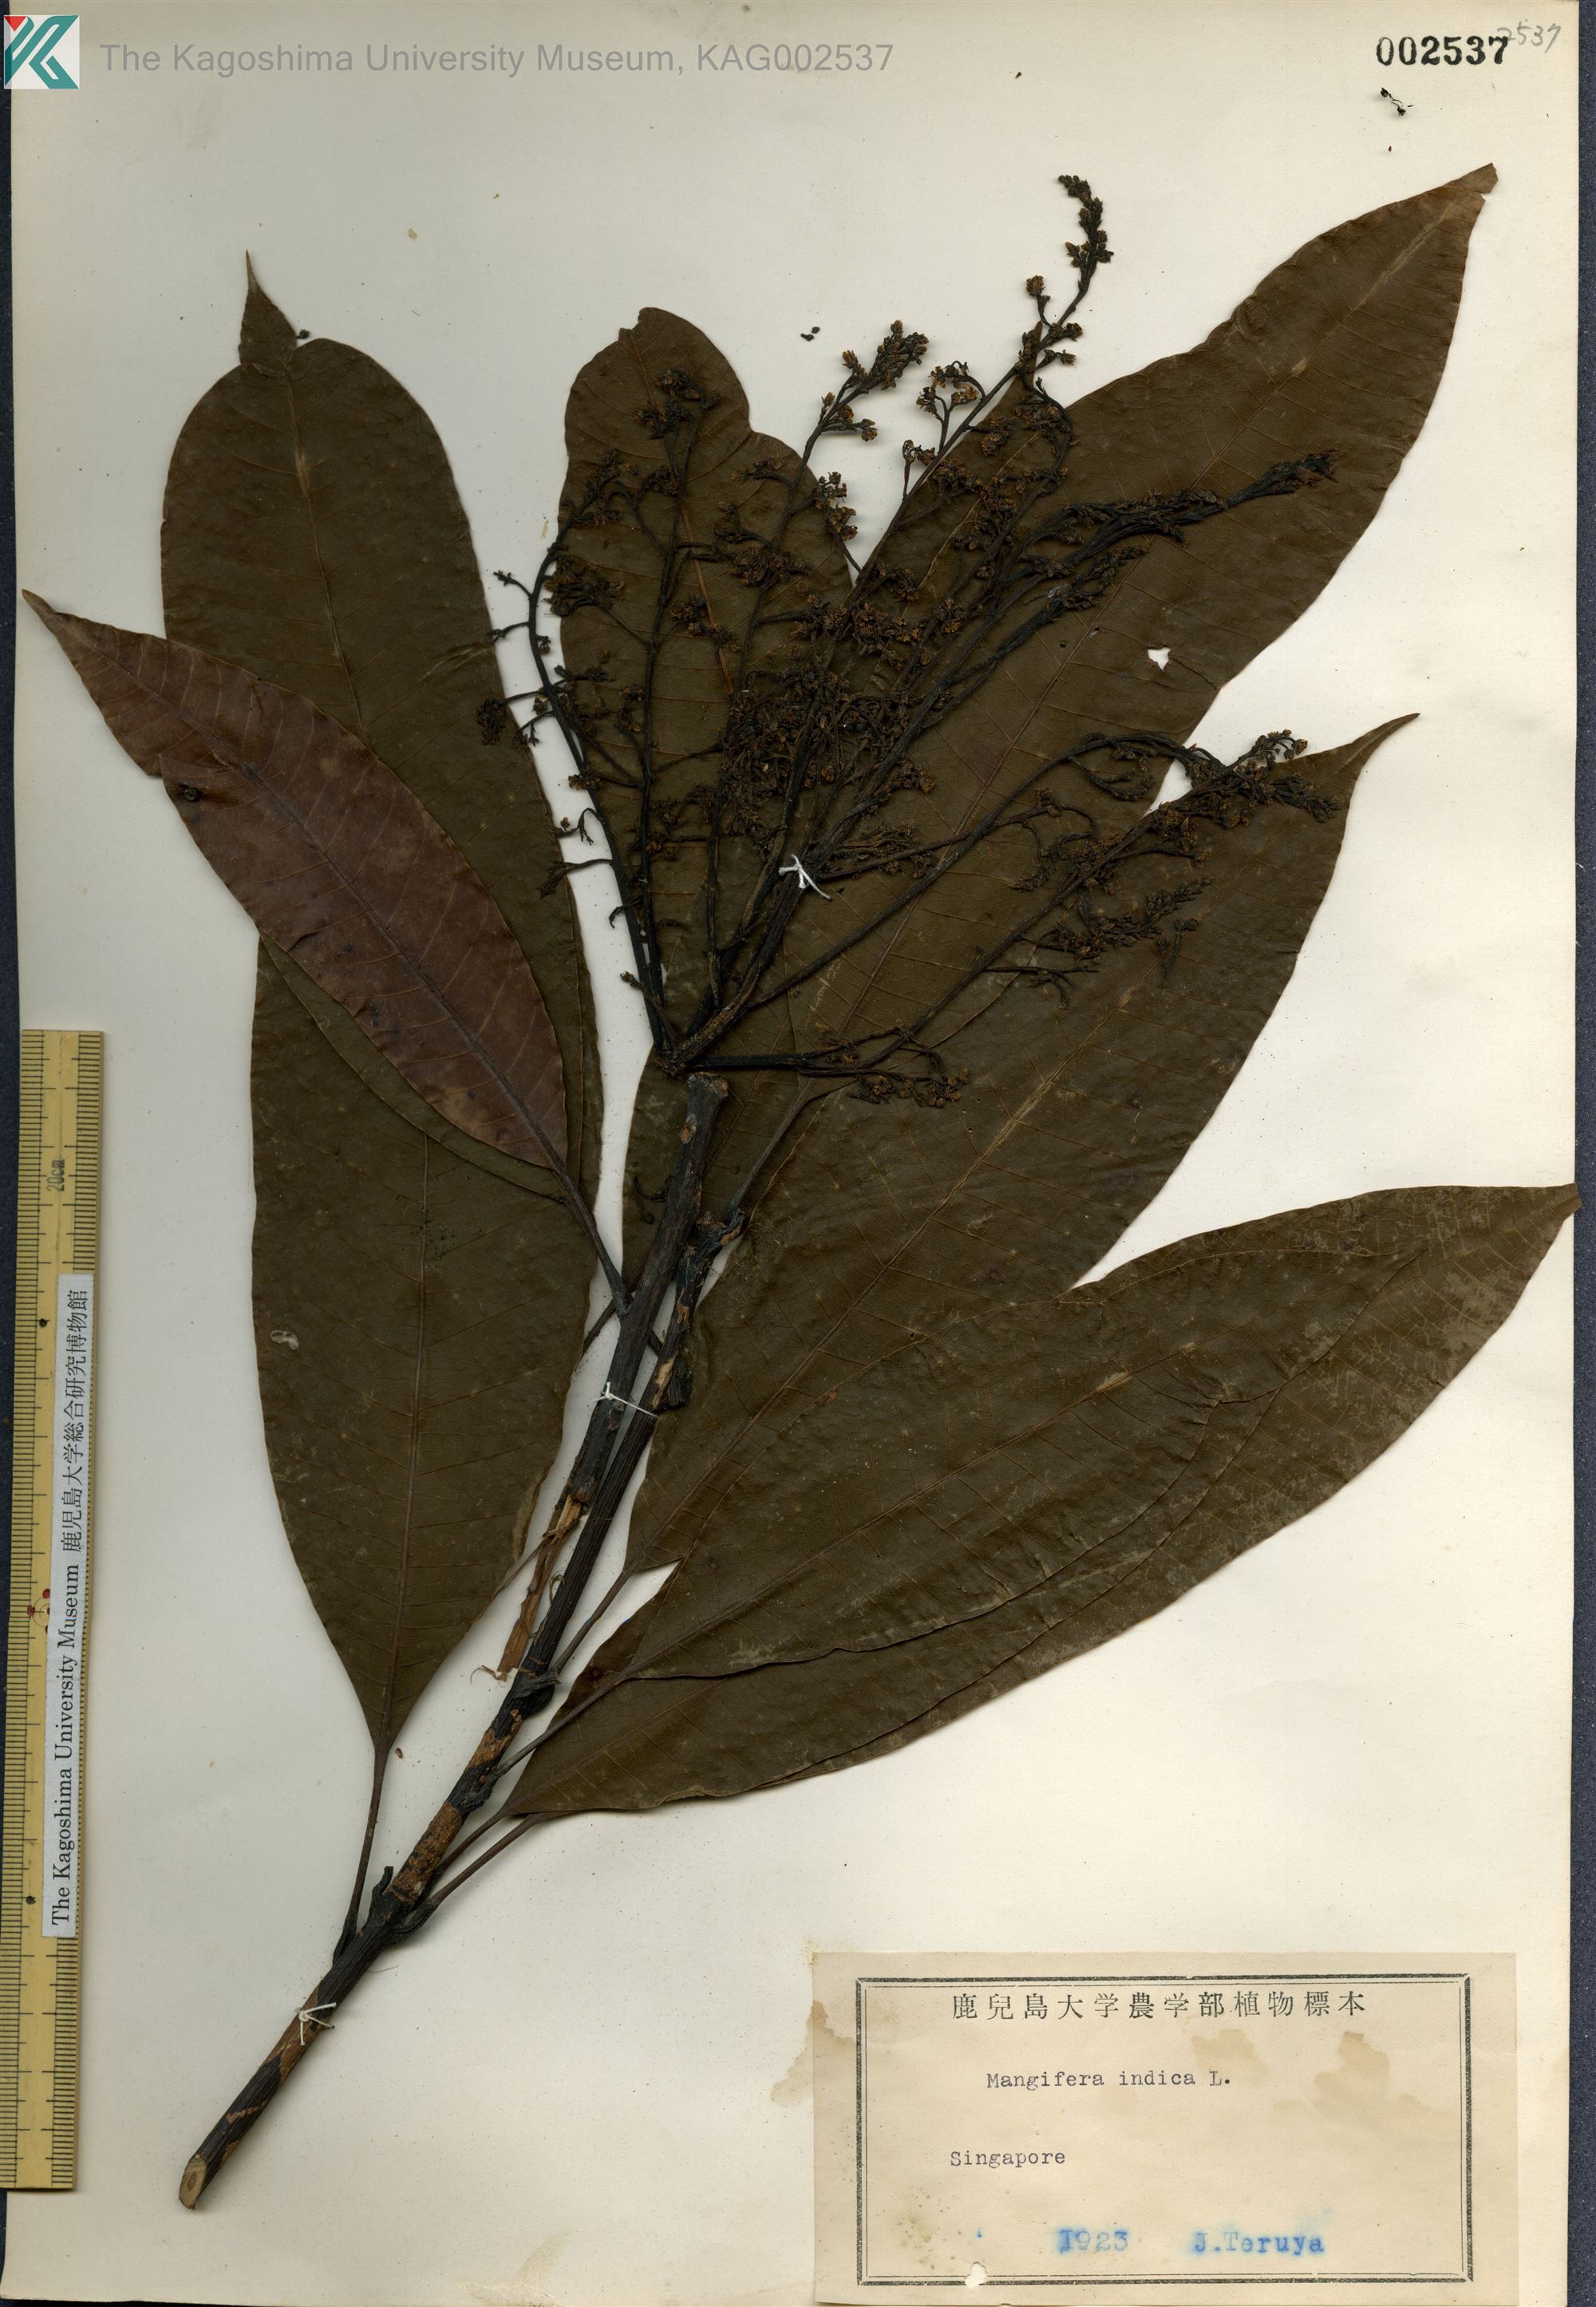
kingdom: Plantae
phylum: Tracheophyta
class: Magnoliopsida
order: Sapindales
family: Anacardiaceae
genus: Mangifera
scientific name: Mangifera indica
